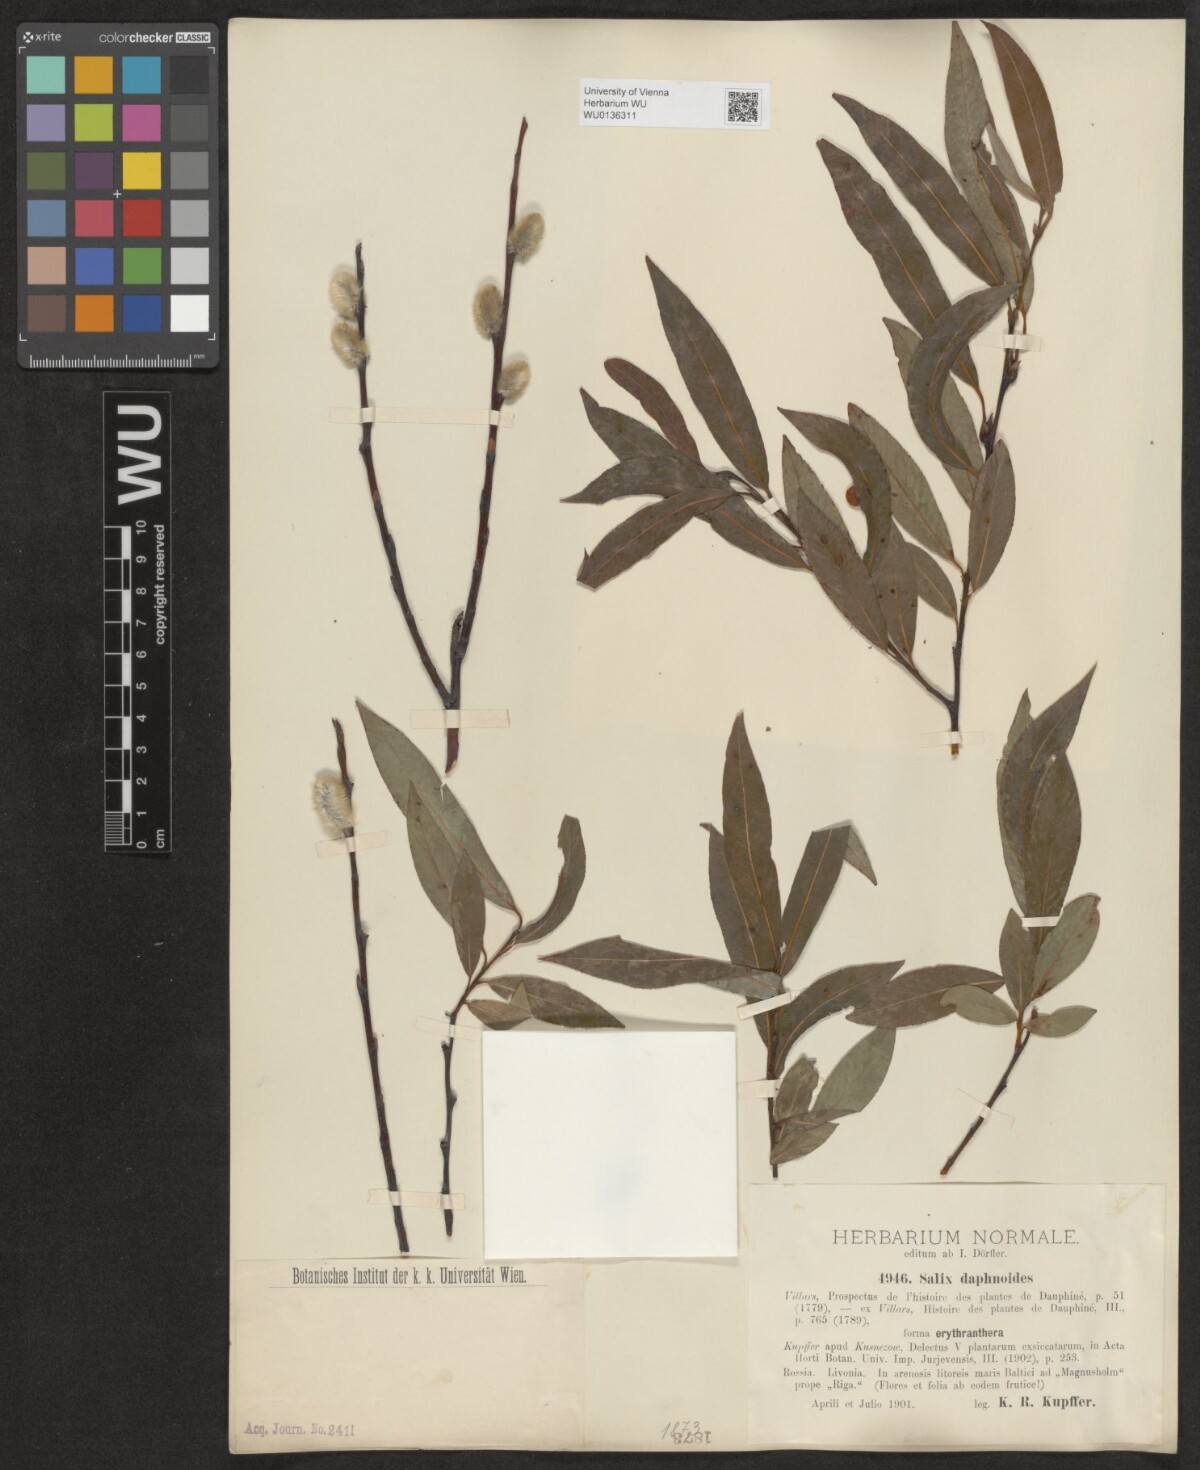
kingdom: Plantae
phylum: Tracheophyta
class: Magnoliopsida
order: Malpighiales
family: Salicaceae
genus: Salix
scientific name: Salix daphnoides
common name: European violet-willow
